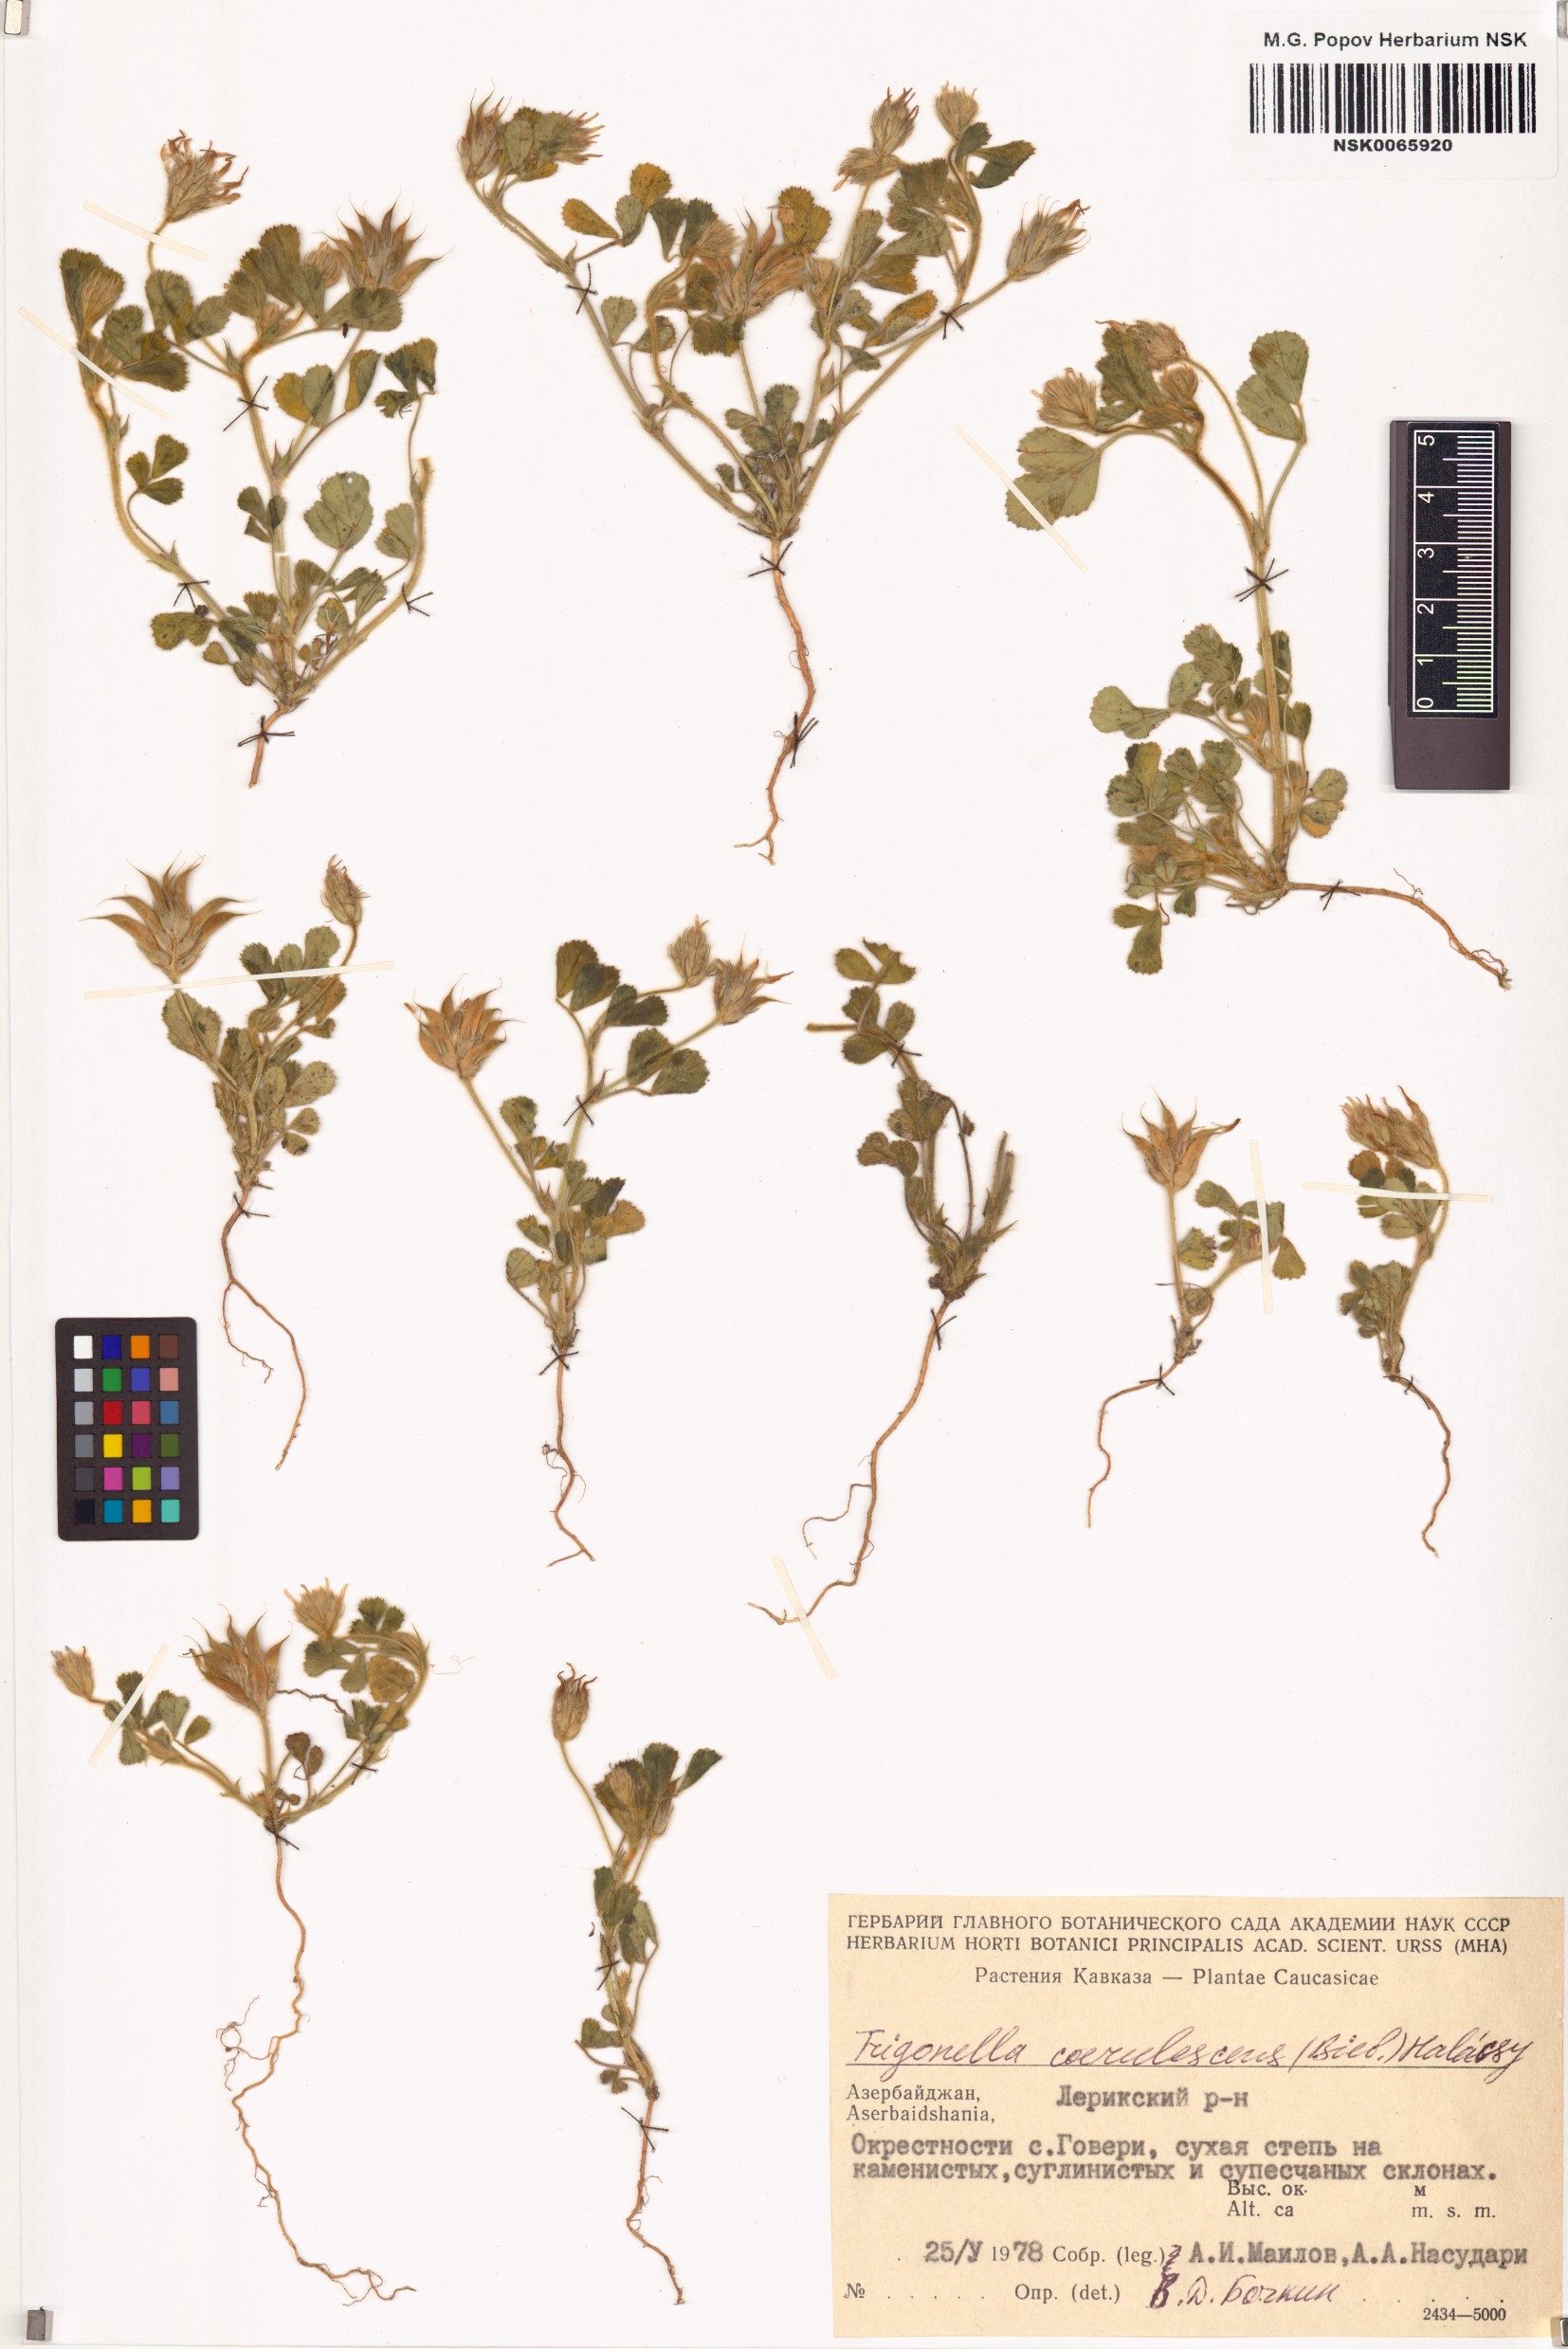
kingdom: Plantae
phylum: Tracheophyta
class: Magnoliopsida
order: Fabales
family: Fabaceae
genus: Trigonella
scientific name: Trigonella coerulescens
